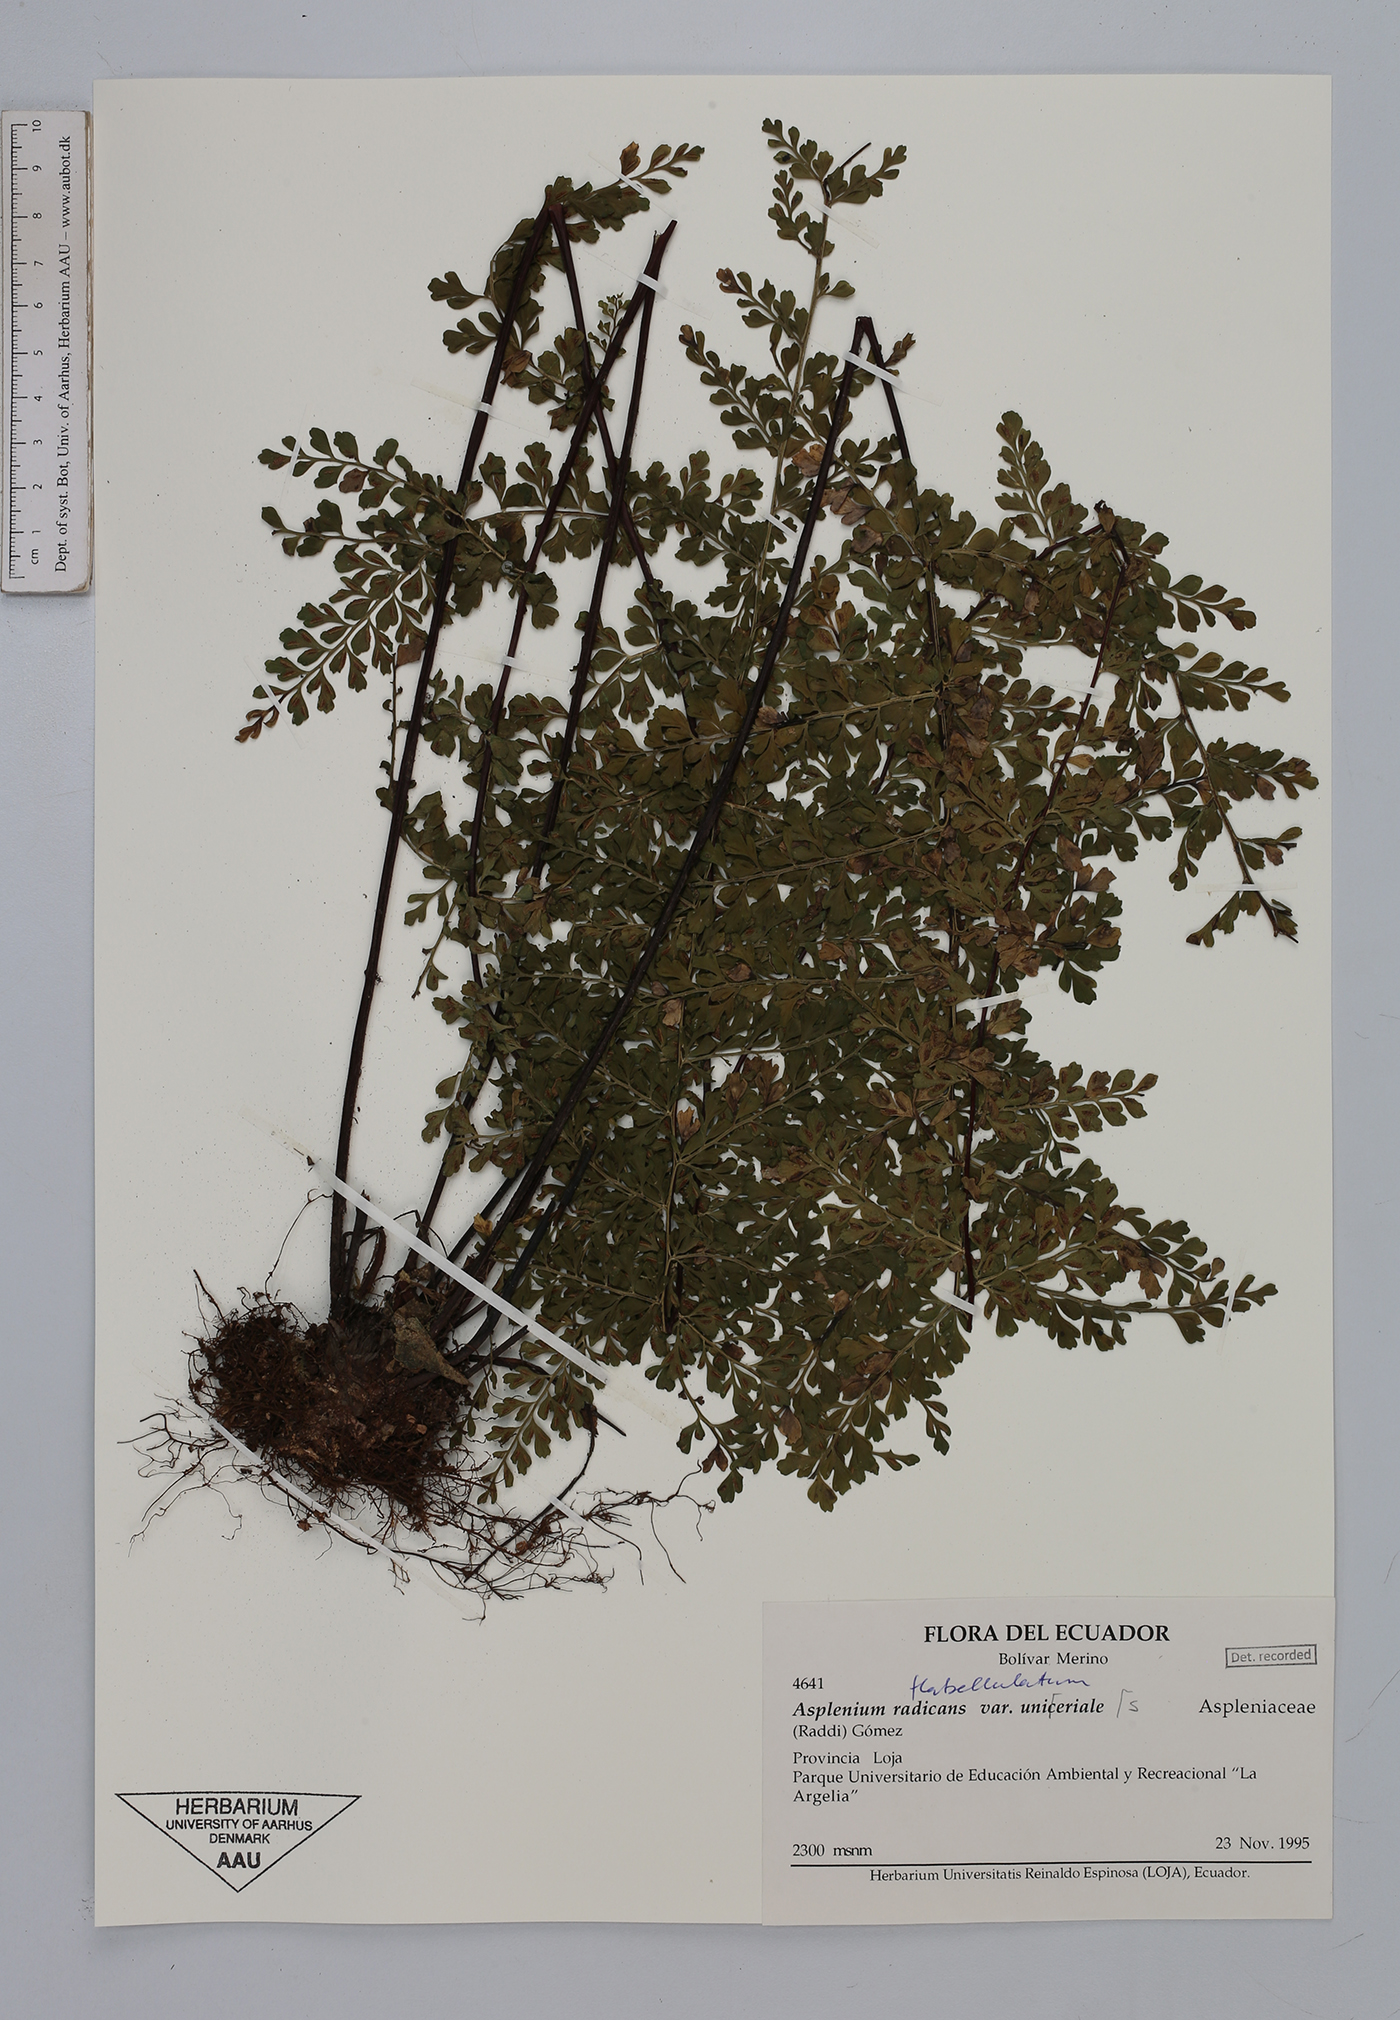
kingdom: Plantae
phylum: Tracheophyta
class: Polypodiopsida
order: Polypodiales
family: Aspleniaceae
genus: Asplenium
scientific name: Asplenium flabellulatum
